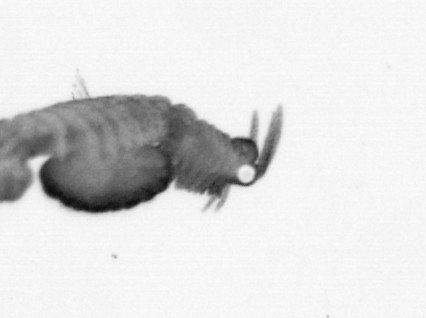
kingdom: Animalia
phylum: Annelida
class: Polychaeta
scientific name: Polychaeta
